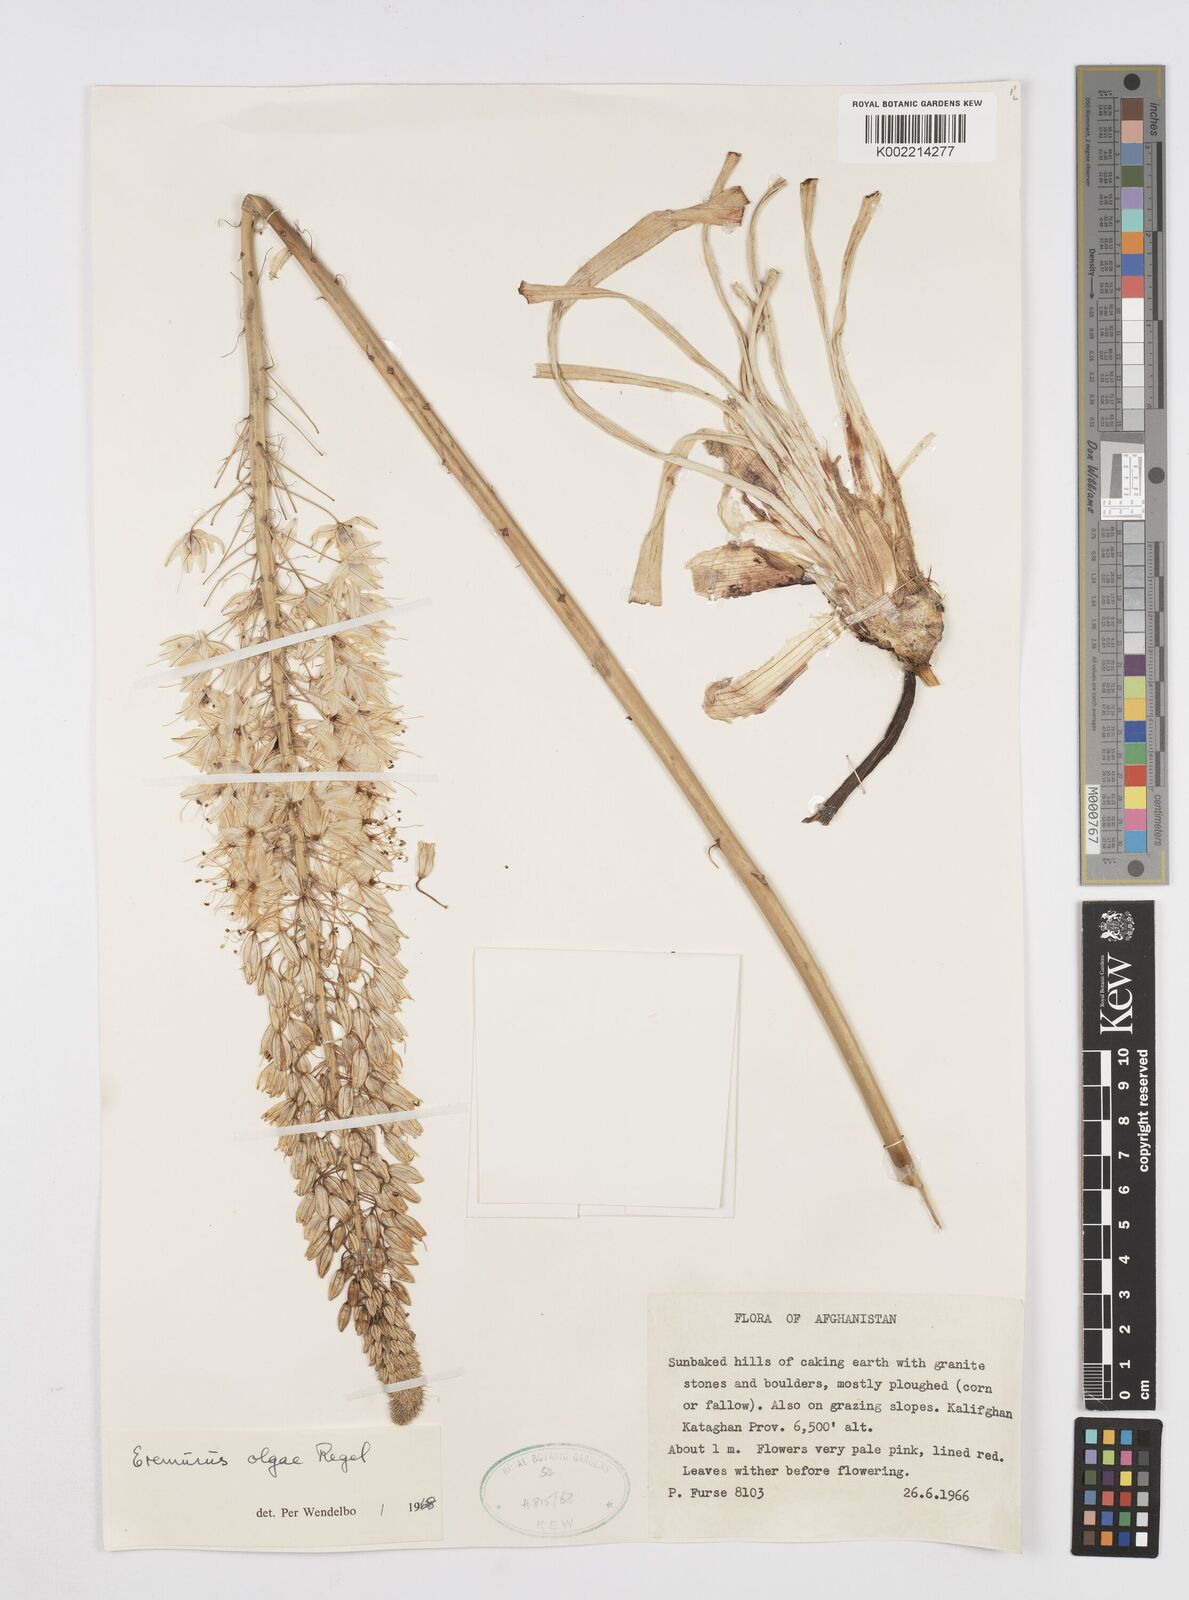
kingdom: Plantae
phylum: Tracheophyta
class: Liliopsida
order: Asparagales
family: Asphodelaceae
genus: Eremurus
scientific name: Eremurus olgae
